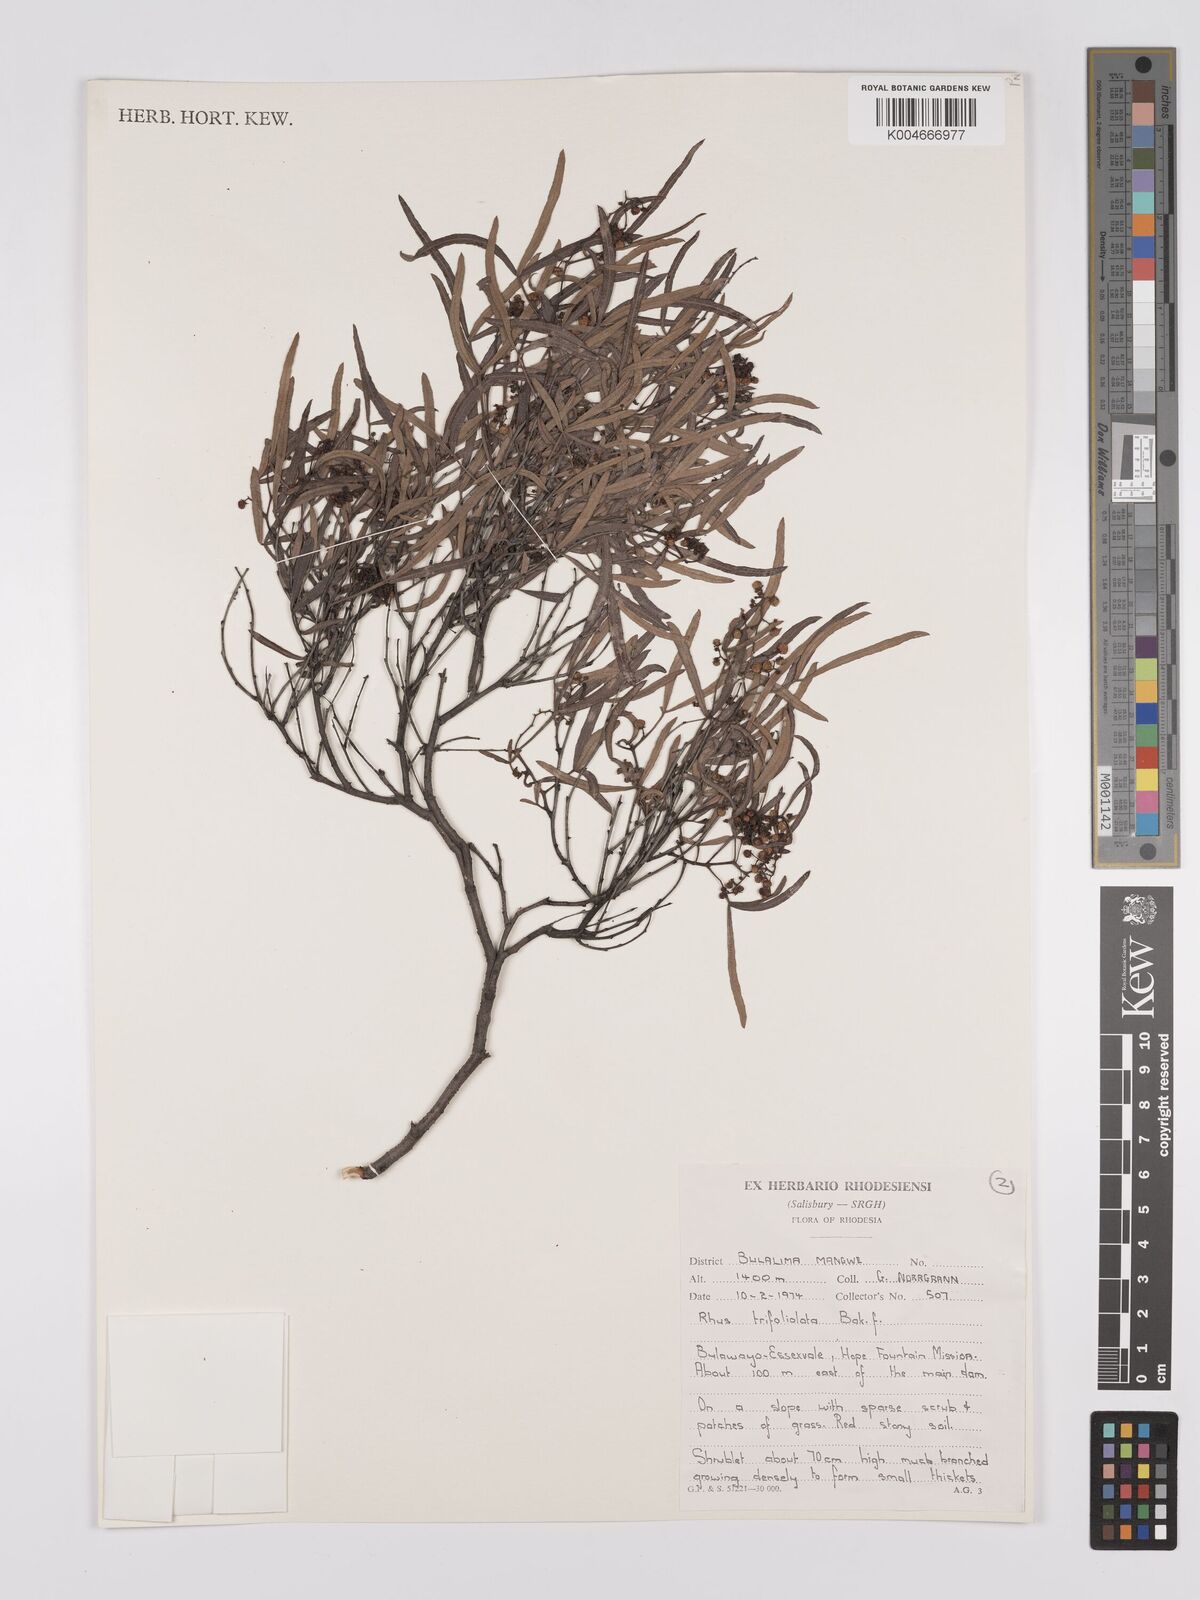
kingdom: Plantae
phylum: Tracheophyta
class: Magnoliopsida
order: Sapindales
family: Anacardiaceae
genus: Searsia
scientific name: Searsia magalismontana
